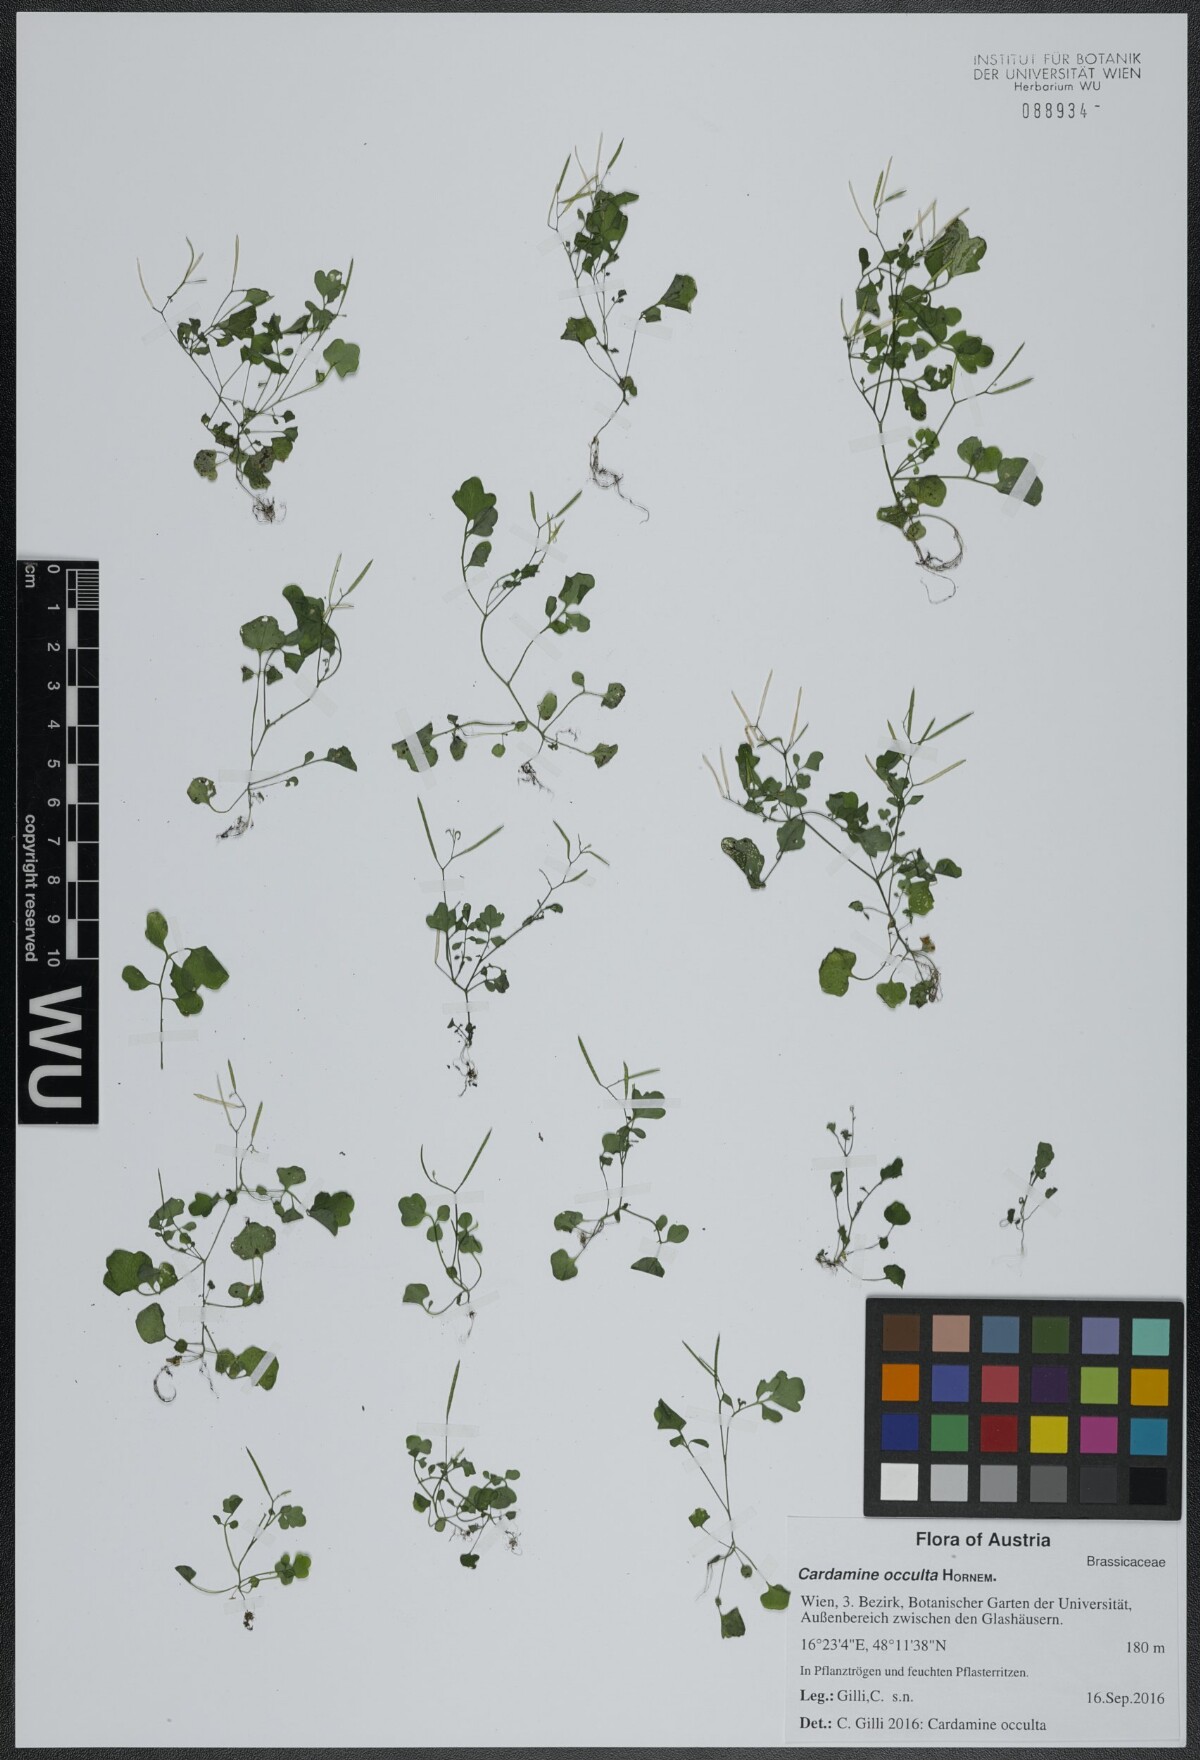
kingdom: Plantae
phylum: Tracheophyta
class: Magnoliopsida
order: Brassicales
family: Brassicaceae
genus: Cardamine
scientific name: Cardamine occulta
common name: Asian wavy bittercress
